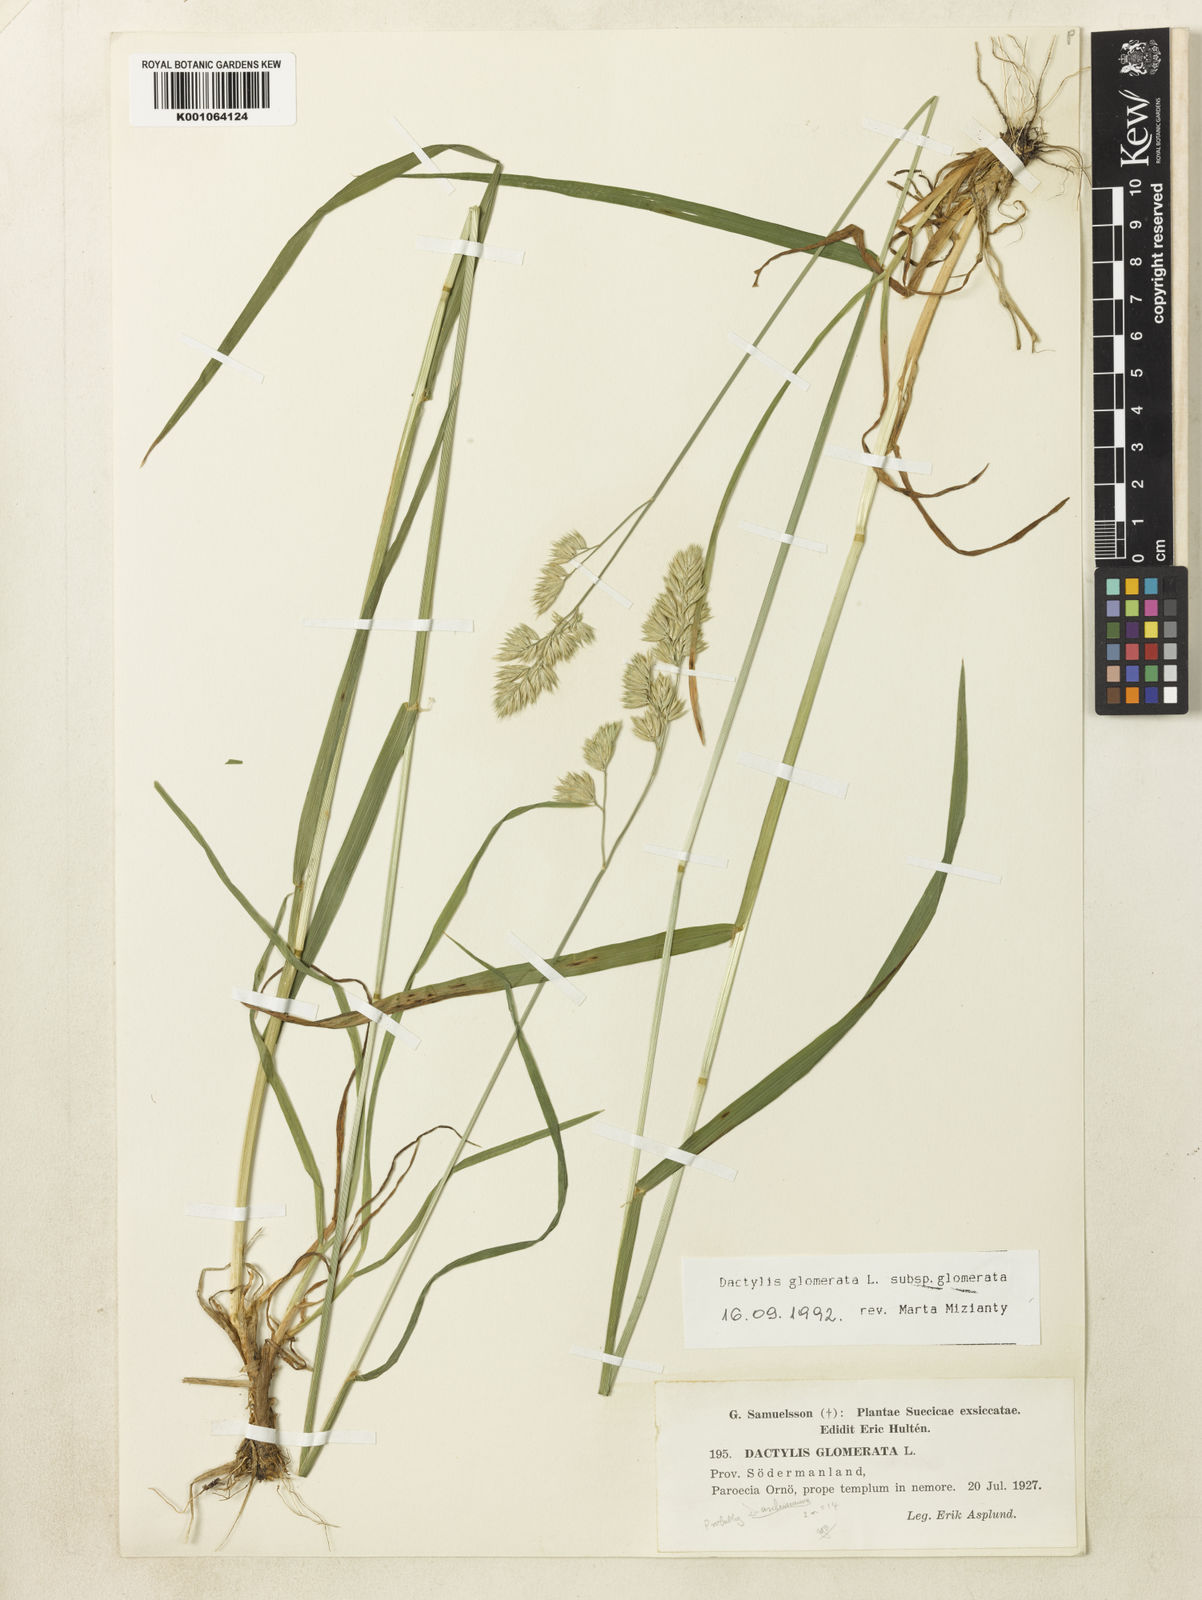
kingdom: Plantae
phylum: Tracheophyta
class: Liliopsida
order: Poales
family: Poaceae
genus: Dactylis
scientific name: Dactylis glomerata
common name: Orchardgrass
